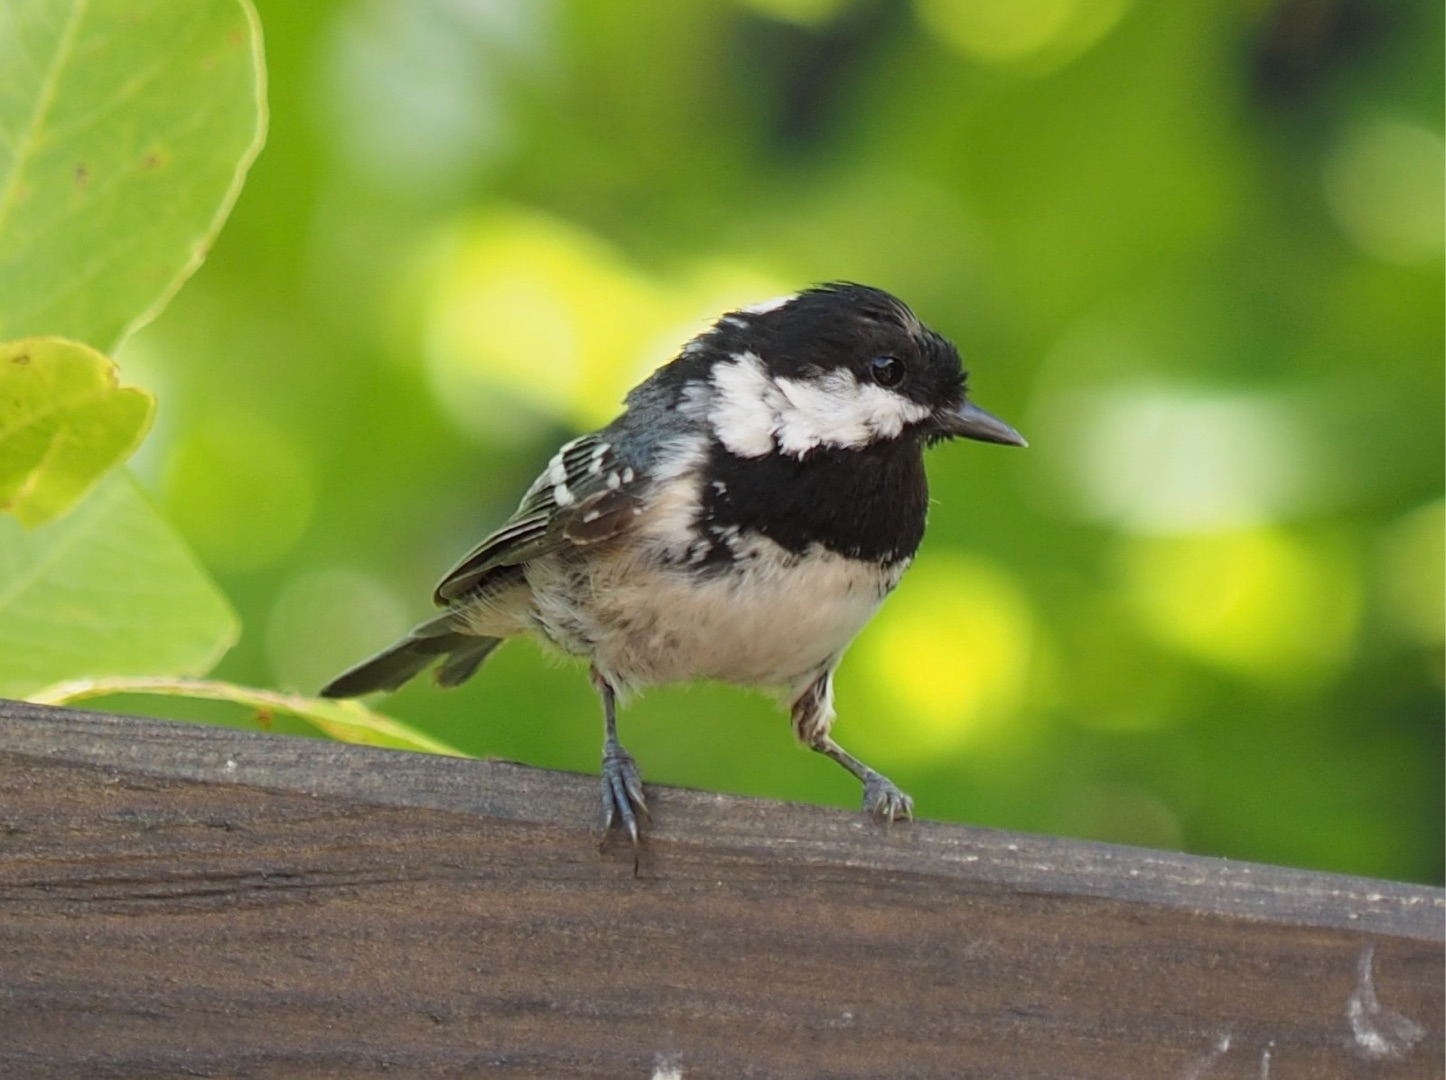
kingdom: Animalia
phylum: Chordata
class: Aves
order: Passeriformes
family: Paridae
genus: Periparus
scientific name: Periparus ater
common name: Sortmejse
